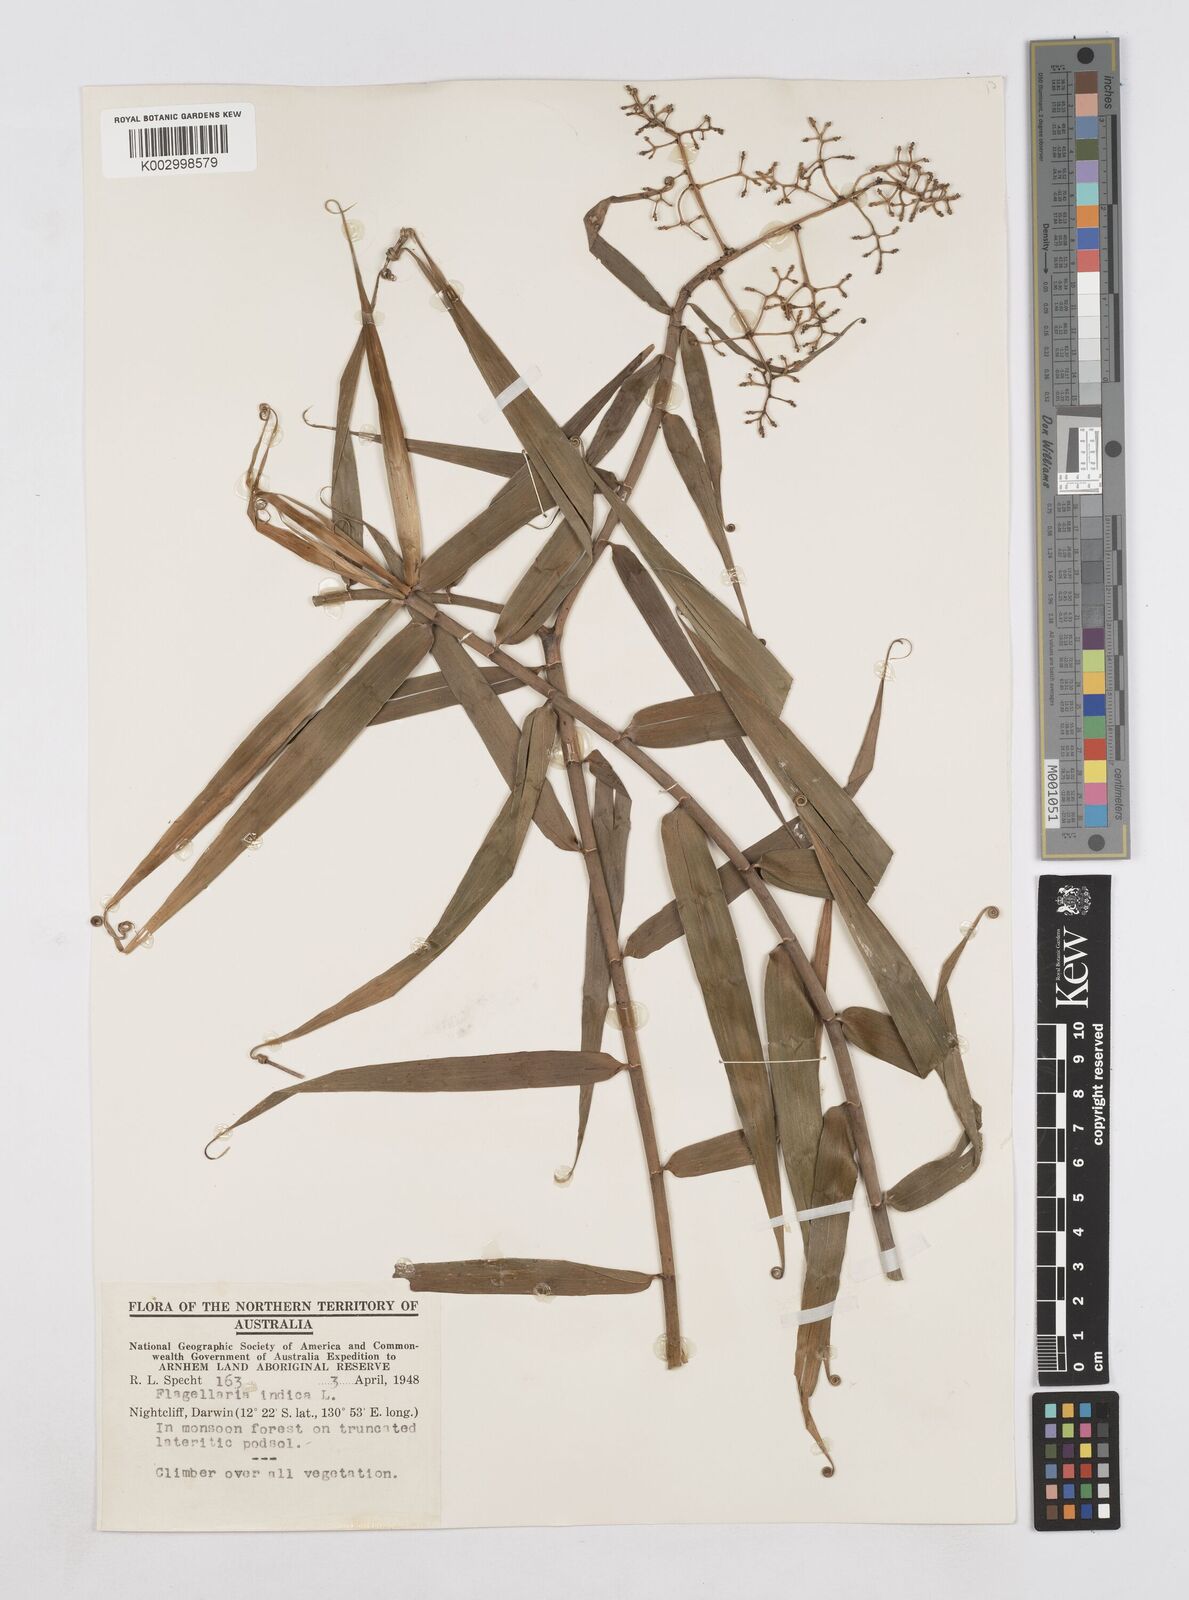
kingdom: Plantae
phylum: Tracheophyta
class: Liliopsida
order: Poales
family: Flagellariaceae
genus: Flagellaria
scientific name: Flagellaria indica
